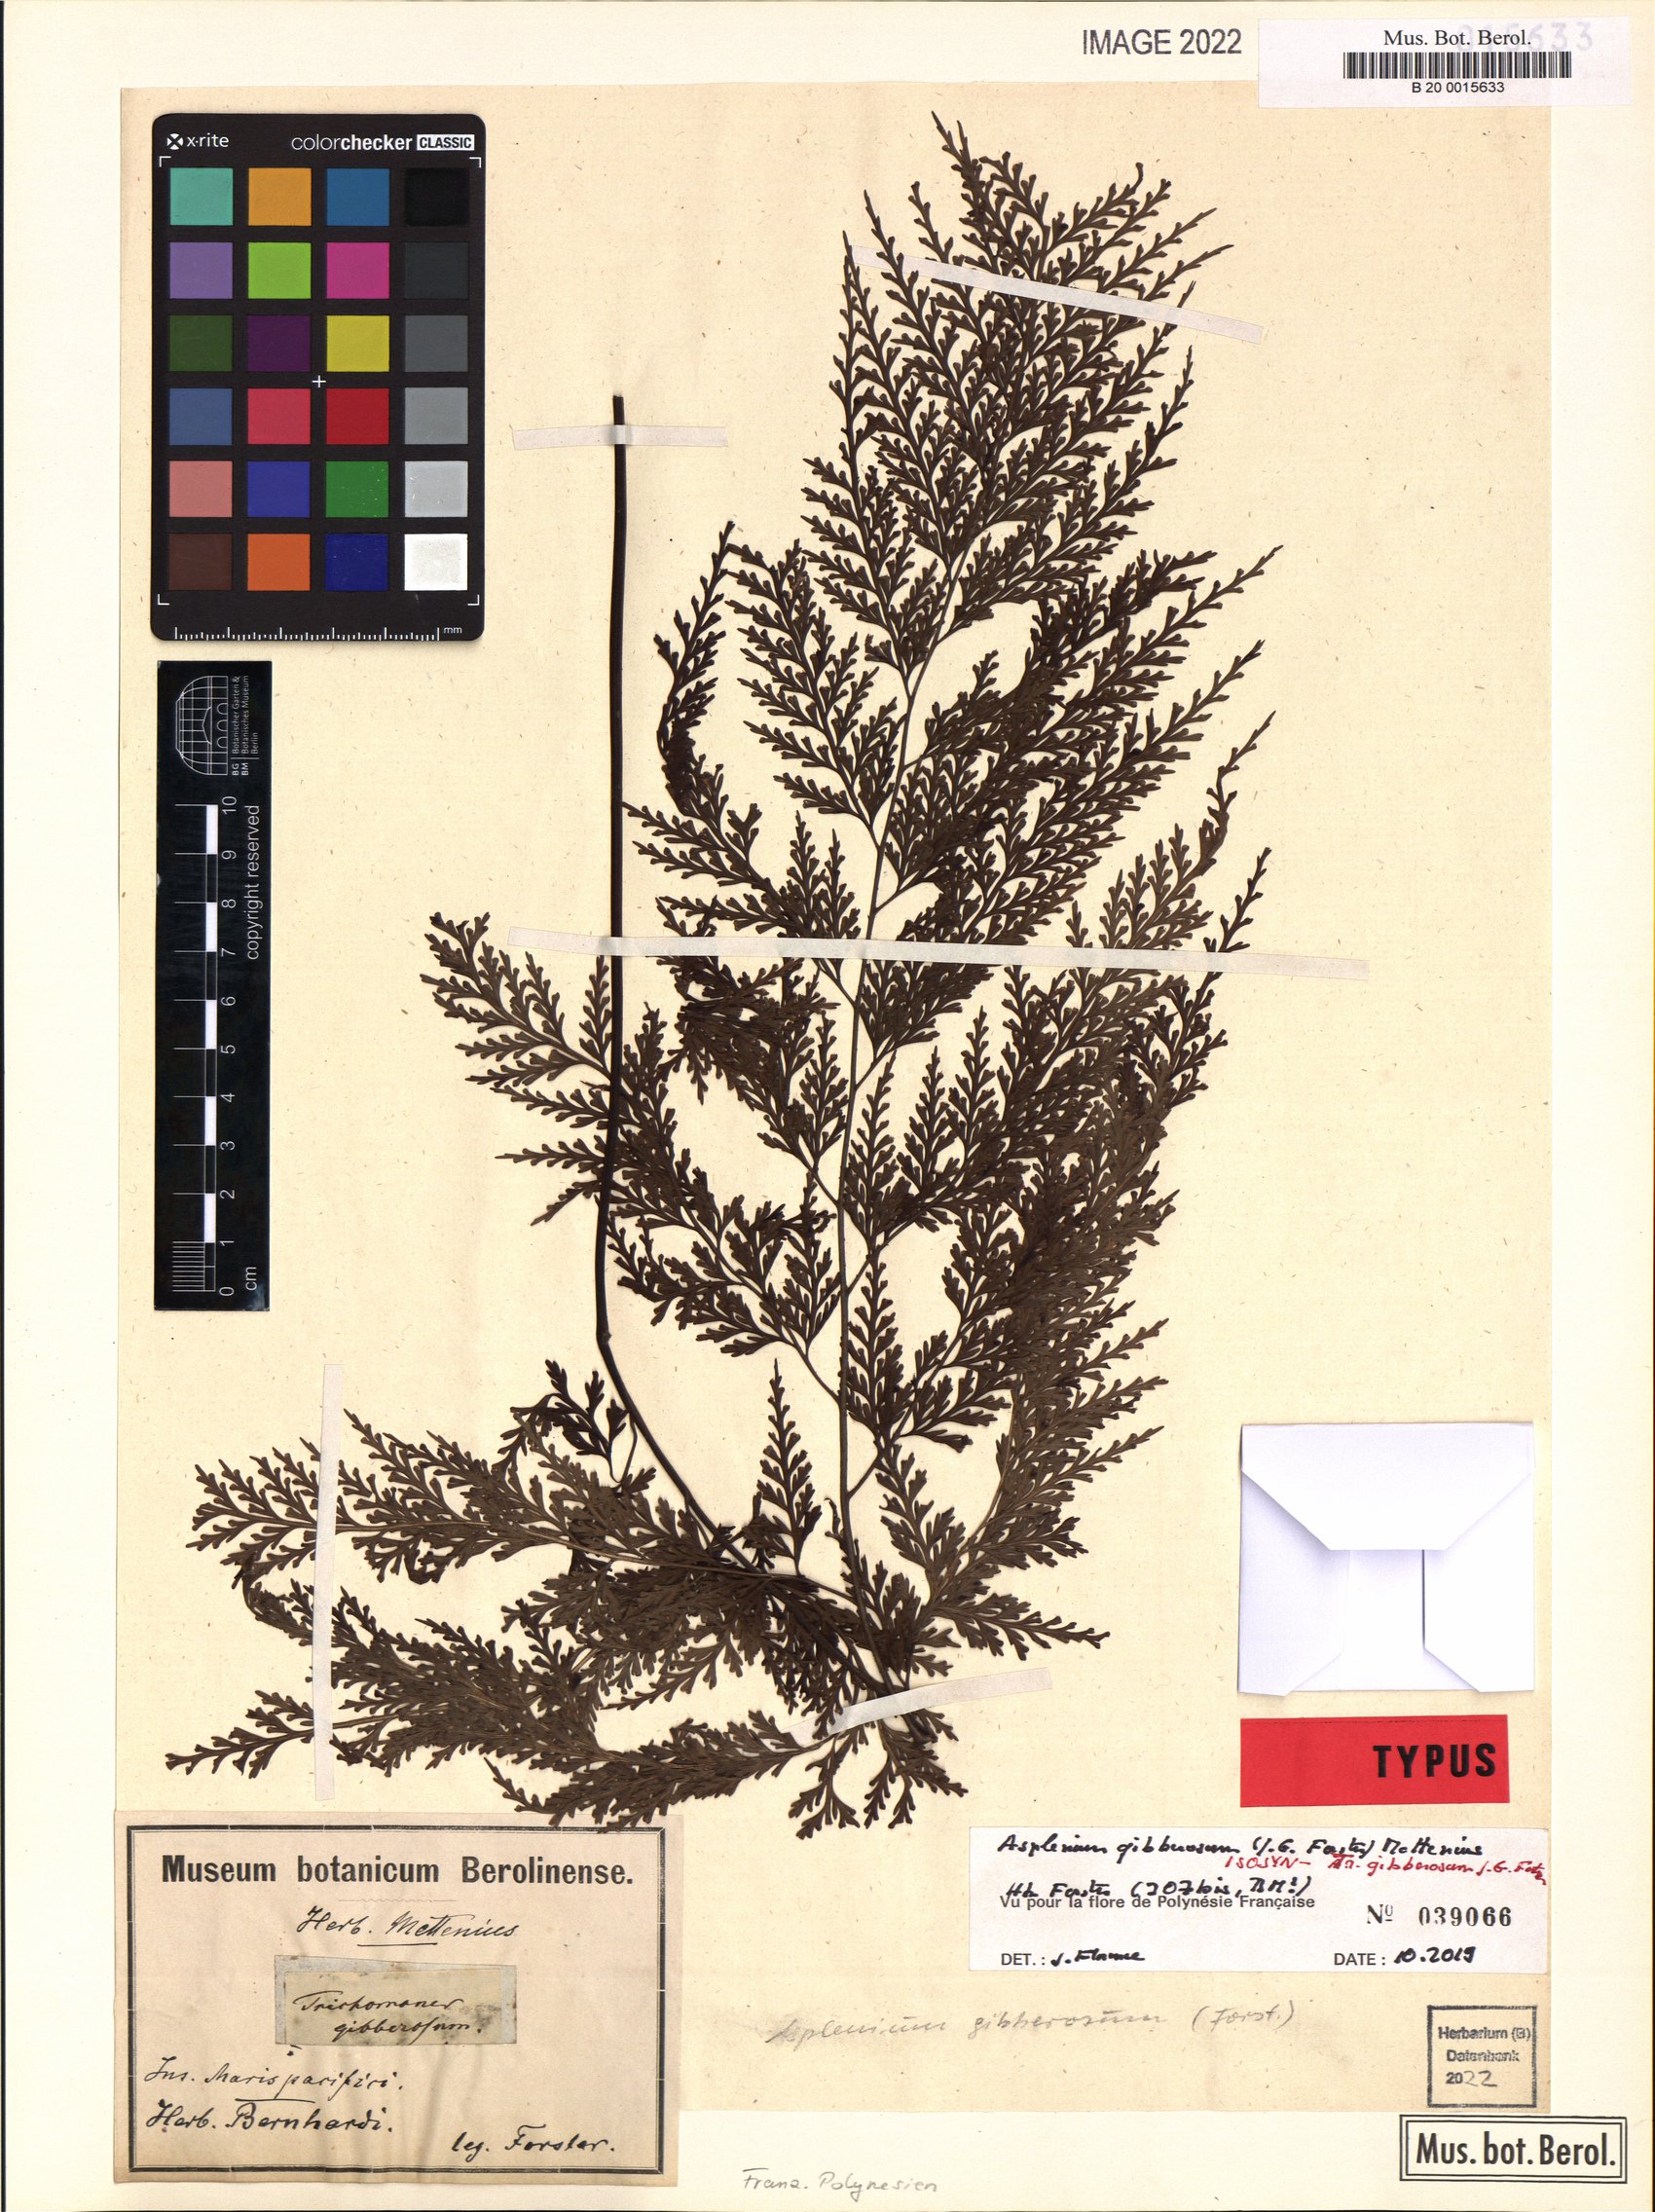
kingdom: Plantae
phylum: Tracheophyta
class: Polypodiopsida
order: Polypodiales
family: Aspleniaceae
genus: Asplenium
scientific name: Asplenium gibberosum
